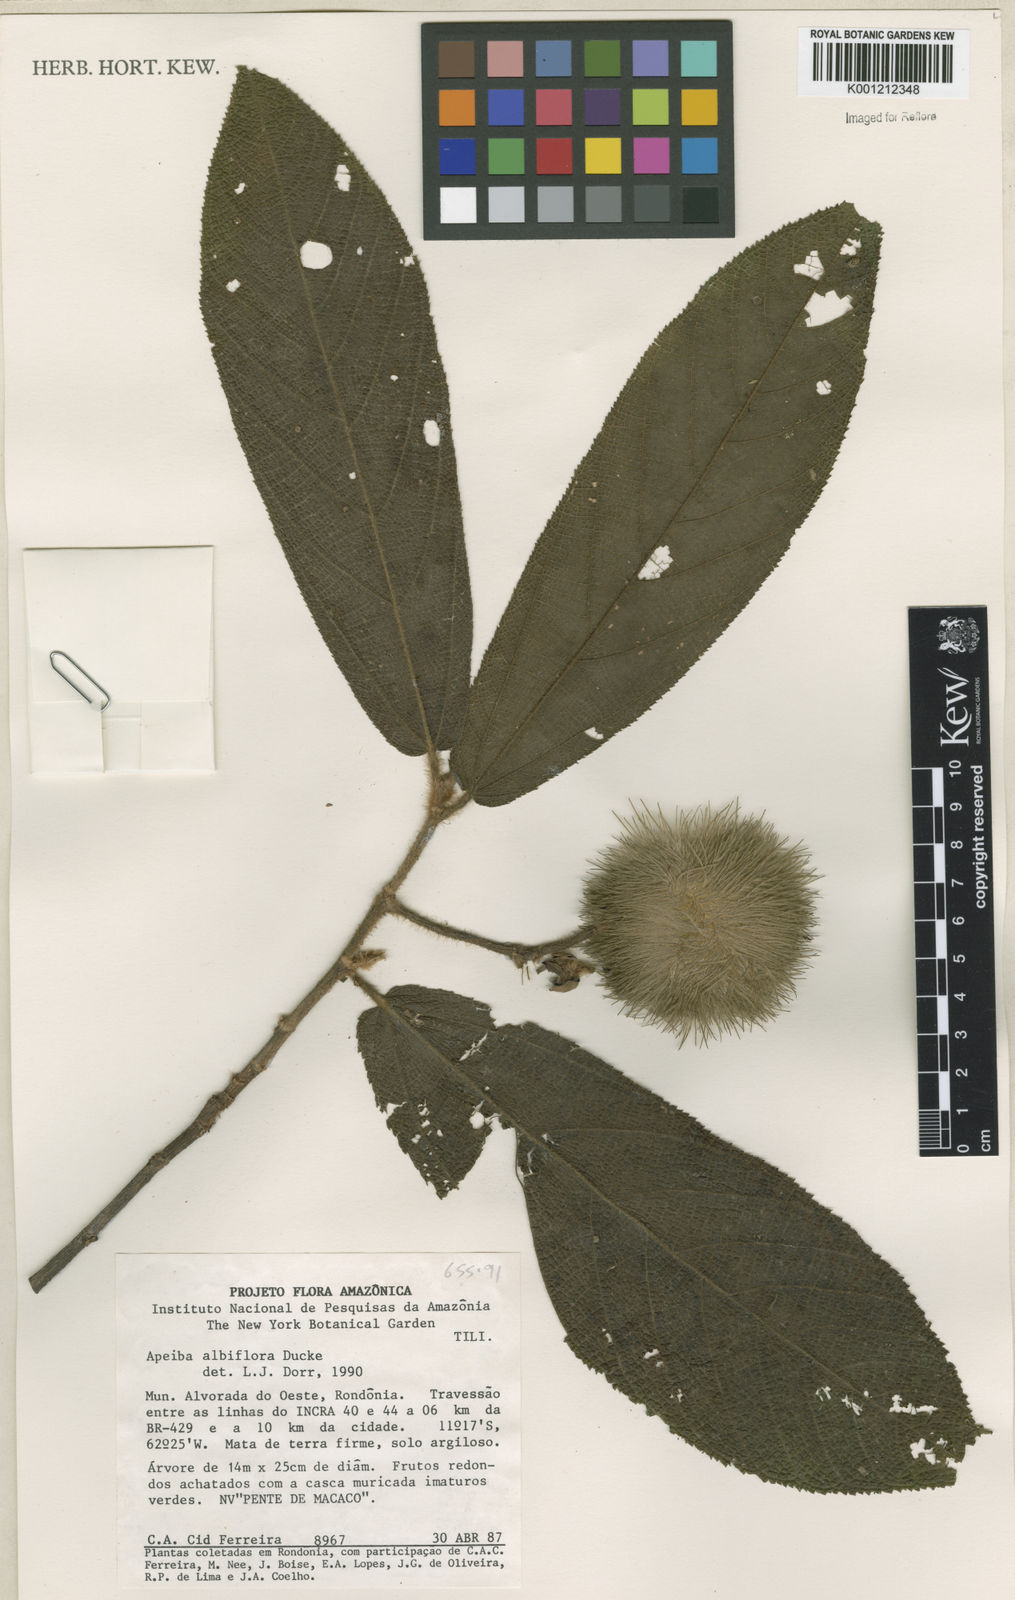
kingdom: Plantae
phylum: Tracheophyta
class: Magnoliopsida
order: Malvales
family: Malvaceae
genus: Apeiba
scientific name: Apeiba albiflora
